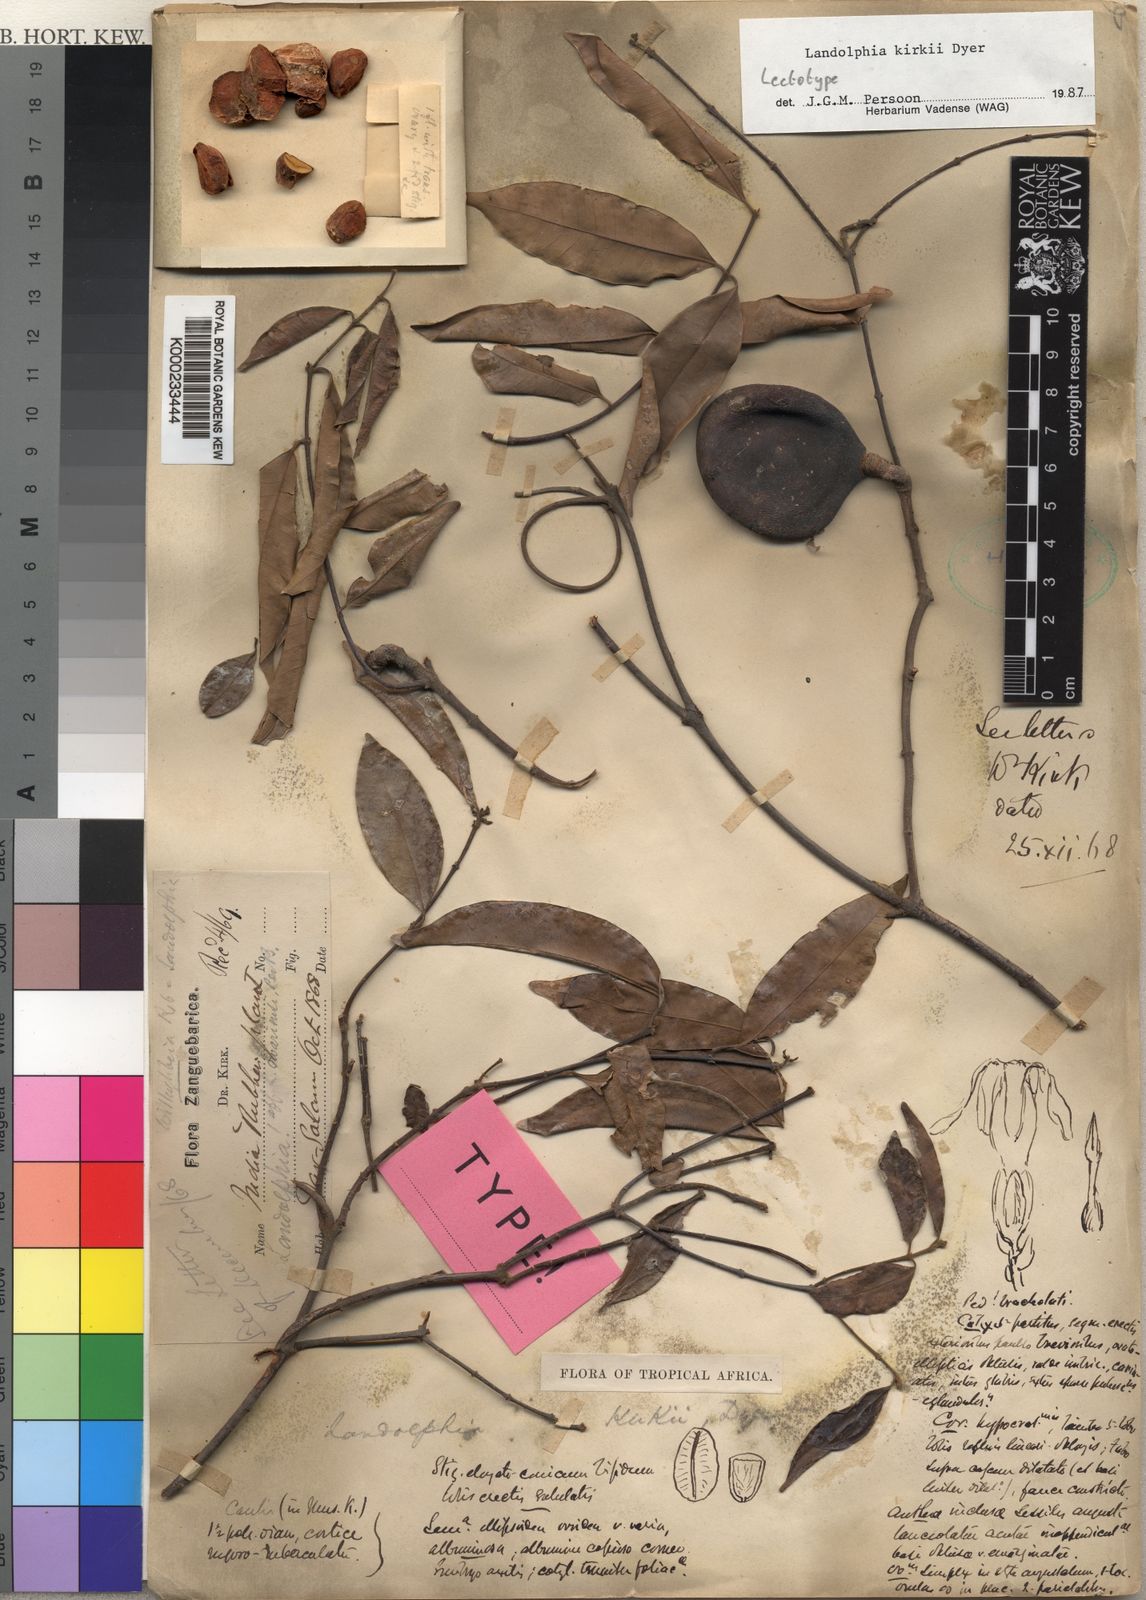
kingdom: Plantae
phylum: Tracheophyta
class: Magnoliopsida
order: Gentianales
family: Apocynaceae
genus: Landolphia
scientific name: Landolphia kirkii
